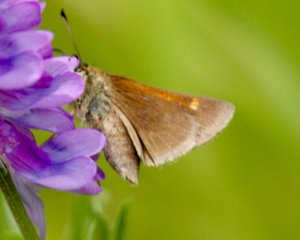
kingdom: Animalia
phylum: Arthropoda
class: Insecta
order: Lepidoptera
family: Hesperiidae
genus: Polites
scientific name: Polites themistocles
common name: Tawny-edged Skipper
